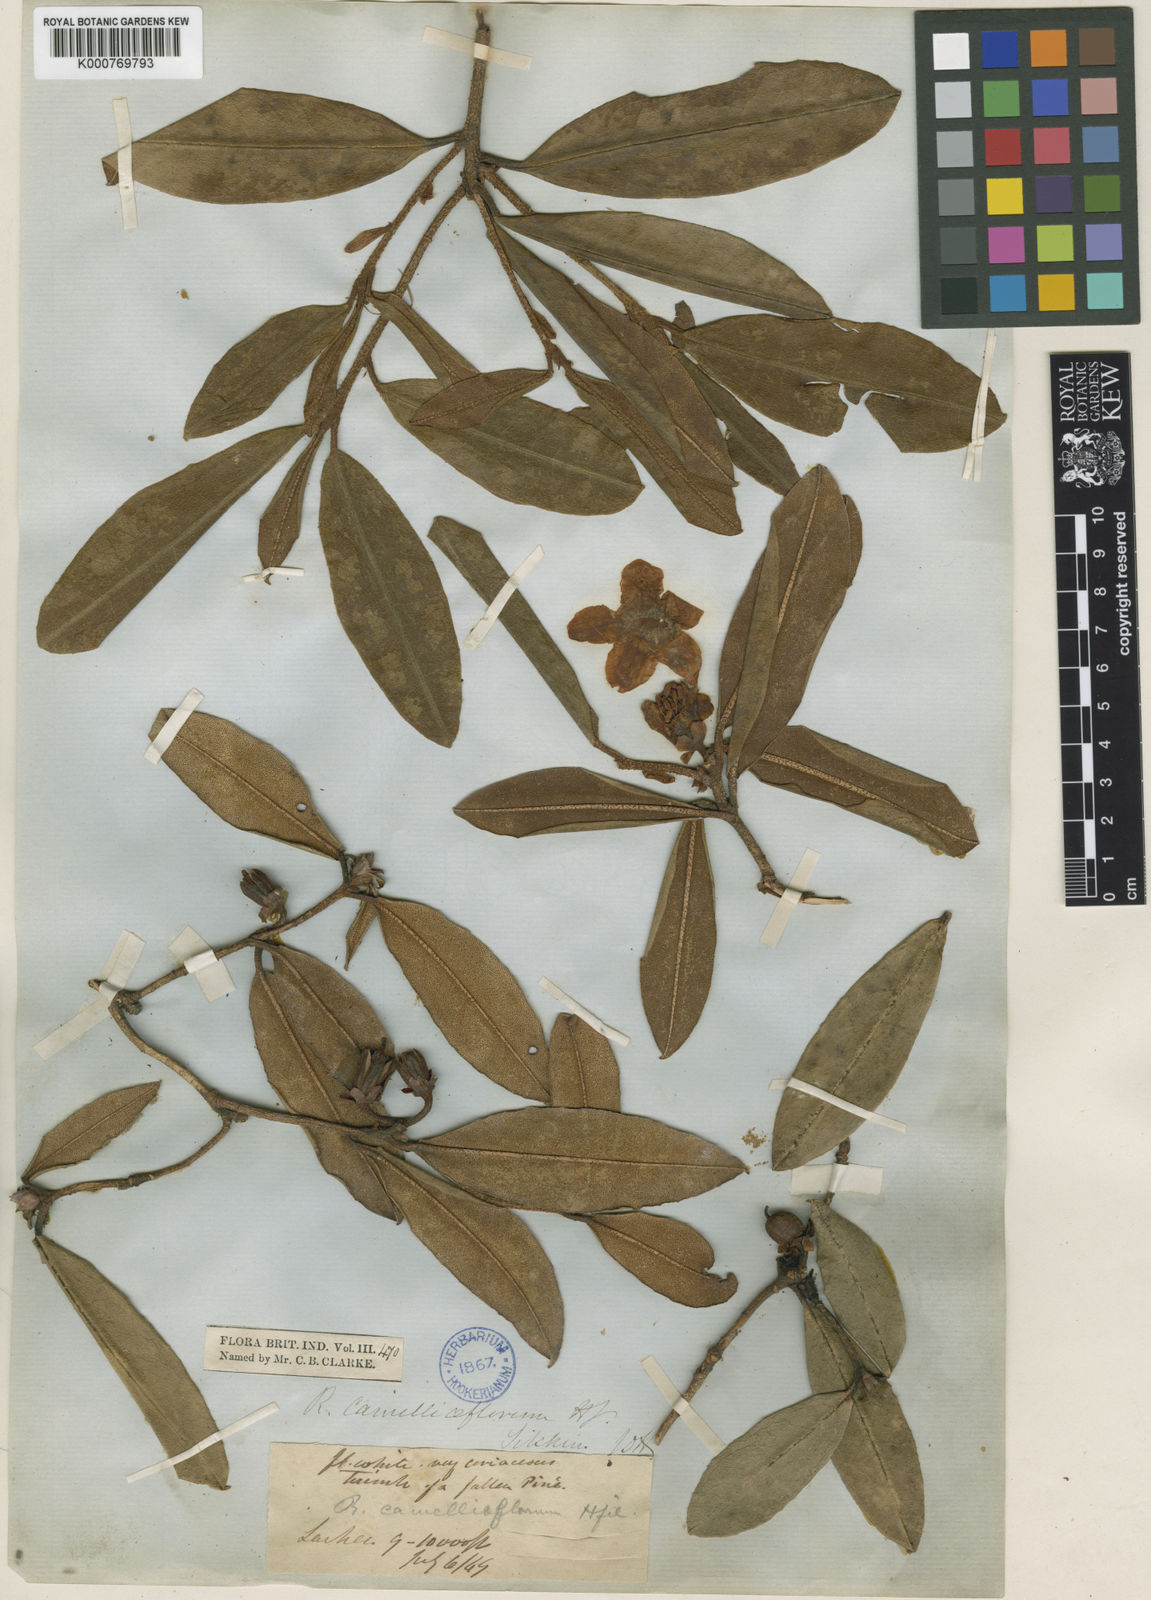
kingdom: Plantae
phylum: Tracheophyta
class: Magnoliopsida
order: Ericales
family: Ericaceae
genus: Rhododendron
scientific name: Rhododendron camelliiflorum
